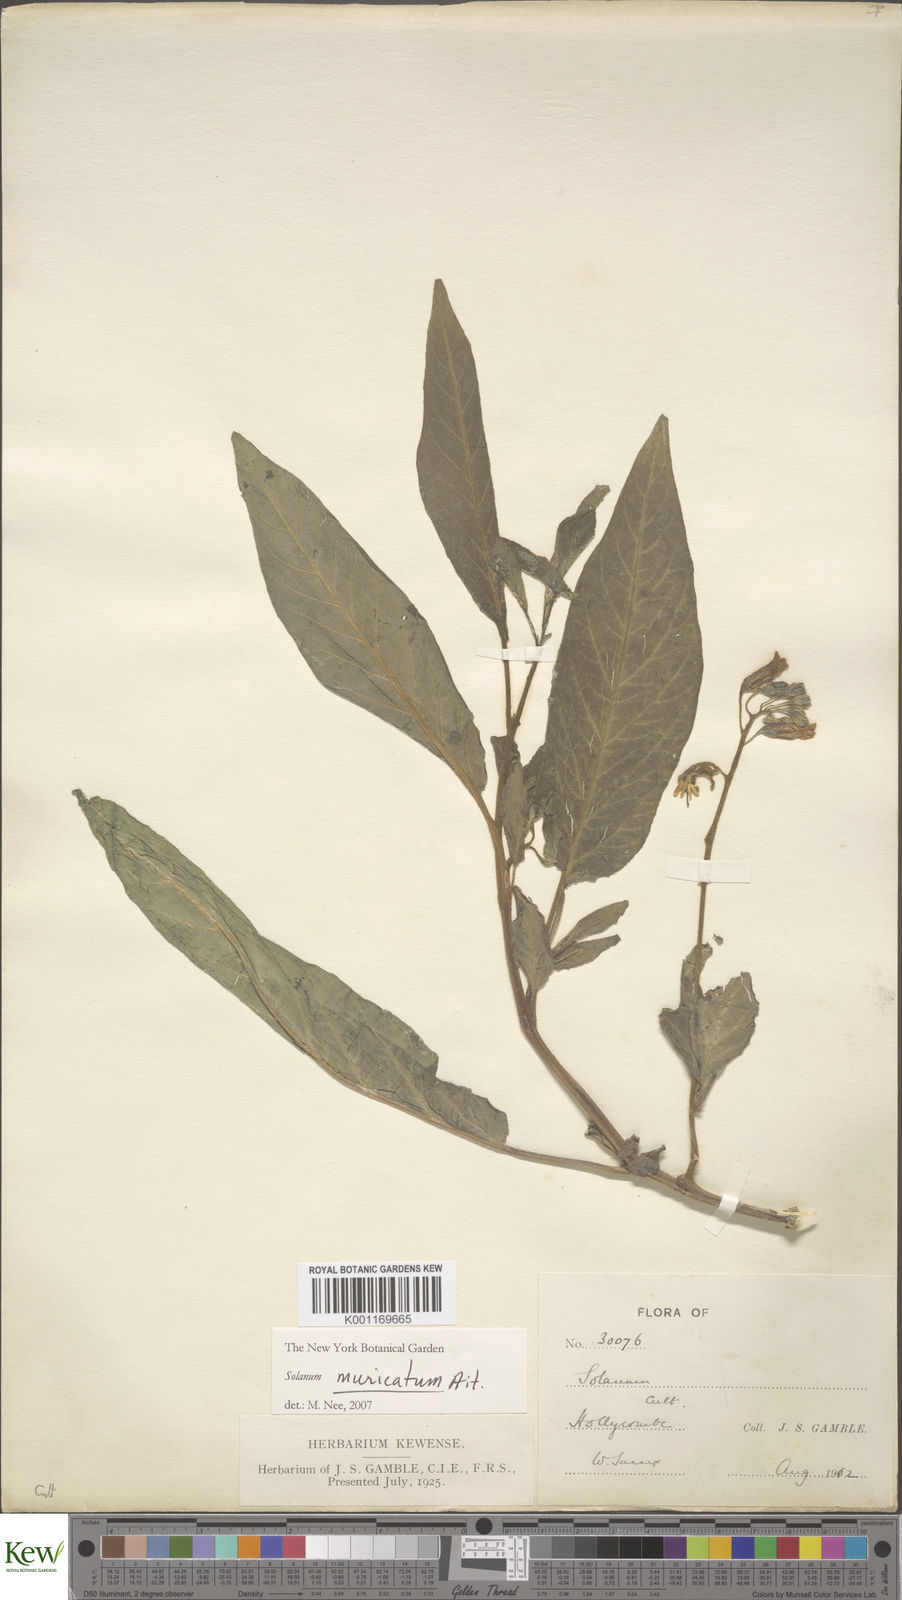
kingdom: Plantae
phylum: Tracheophyta
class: Magnoliopsida
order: Solanales
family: Solanaceae
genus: Solanum
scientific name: Solanum muricatum
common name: Peruvian pepino
